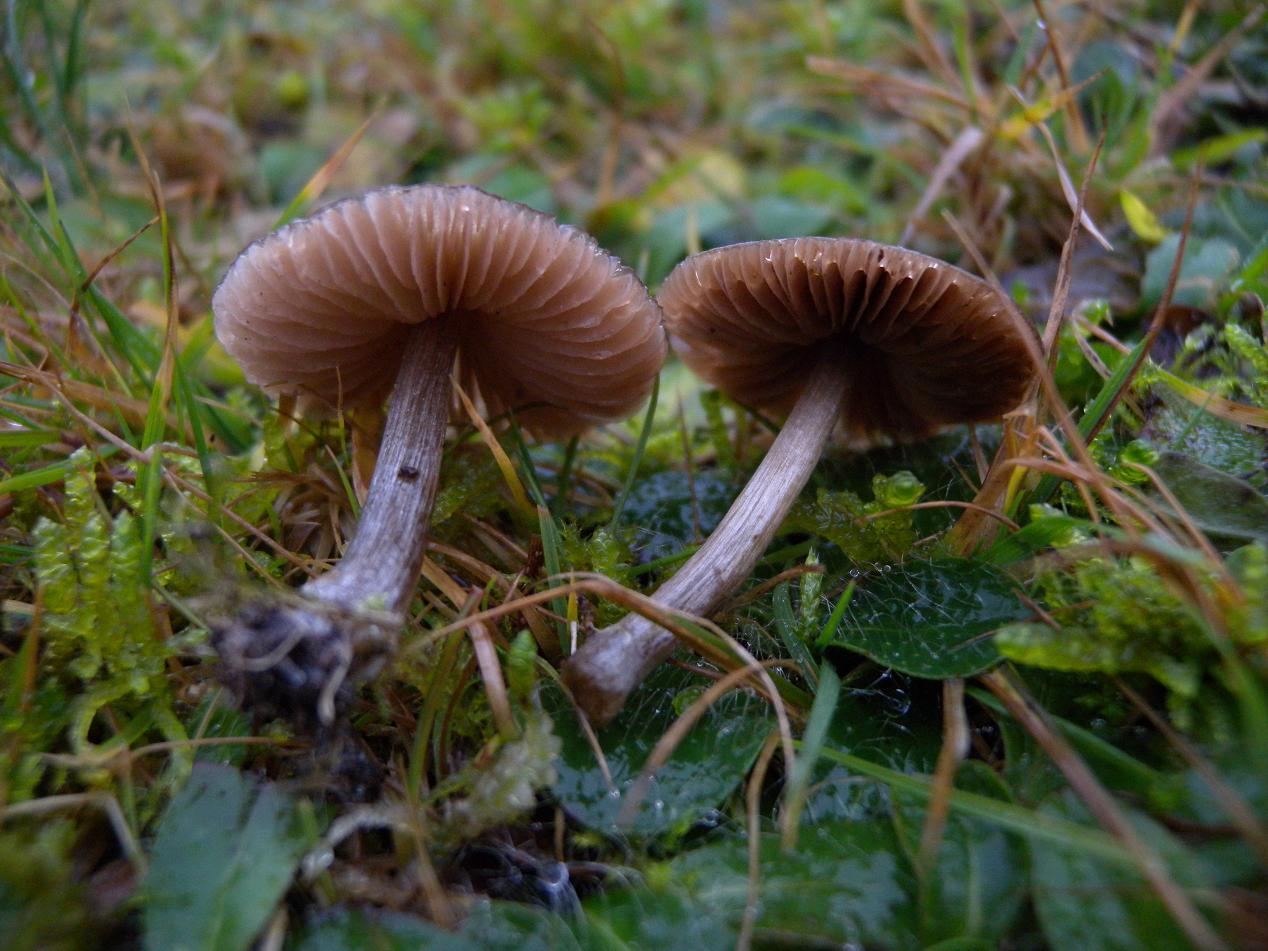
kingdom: Fungi
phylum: Basidiomycota
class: Agaricomycetes
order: Agaricales
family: Entolomataceae
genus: Entoloma
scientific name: Entoloma conferendum
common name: stjernesporet rødblad
